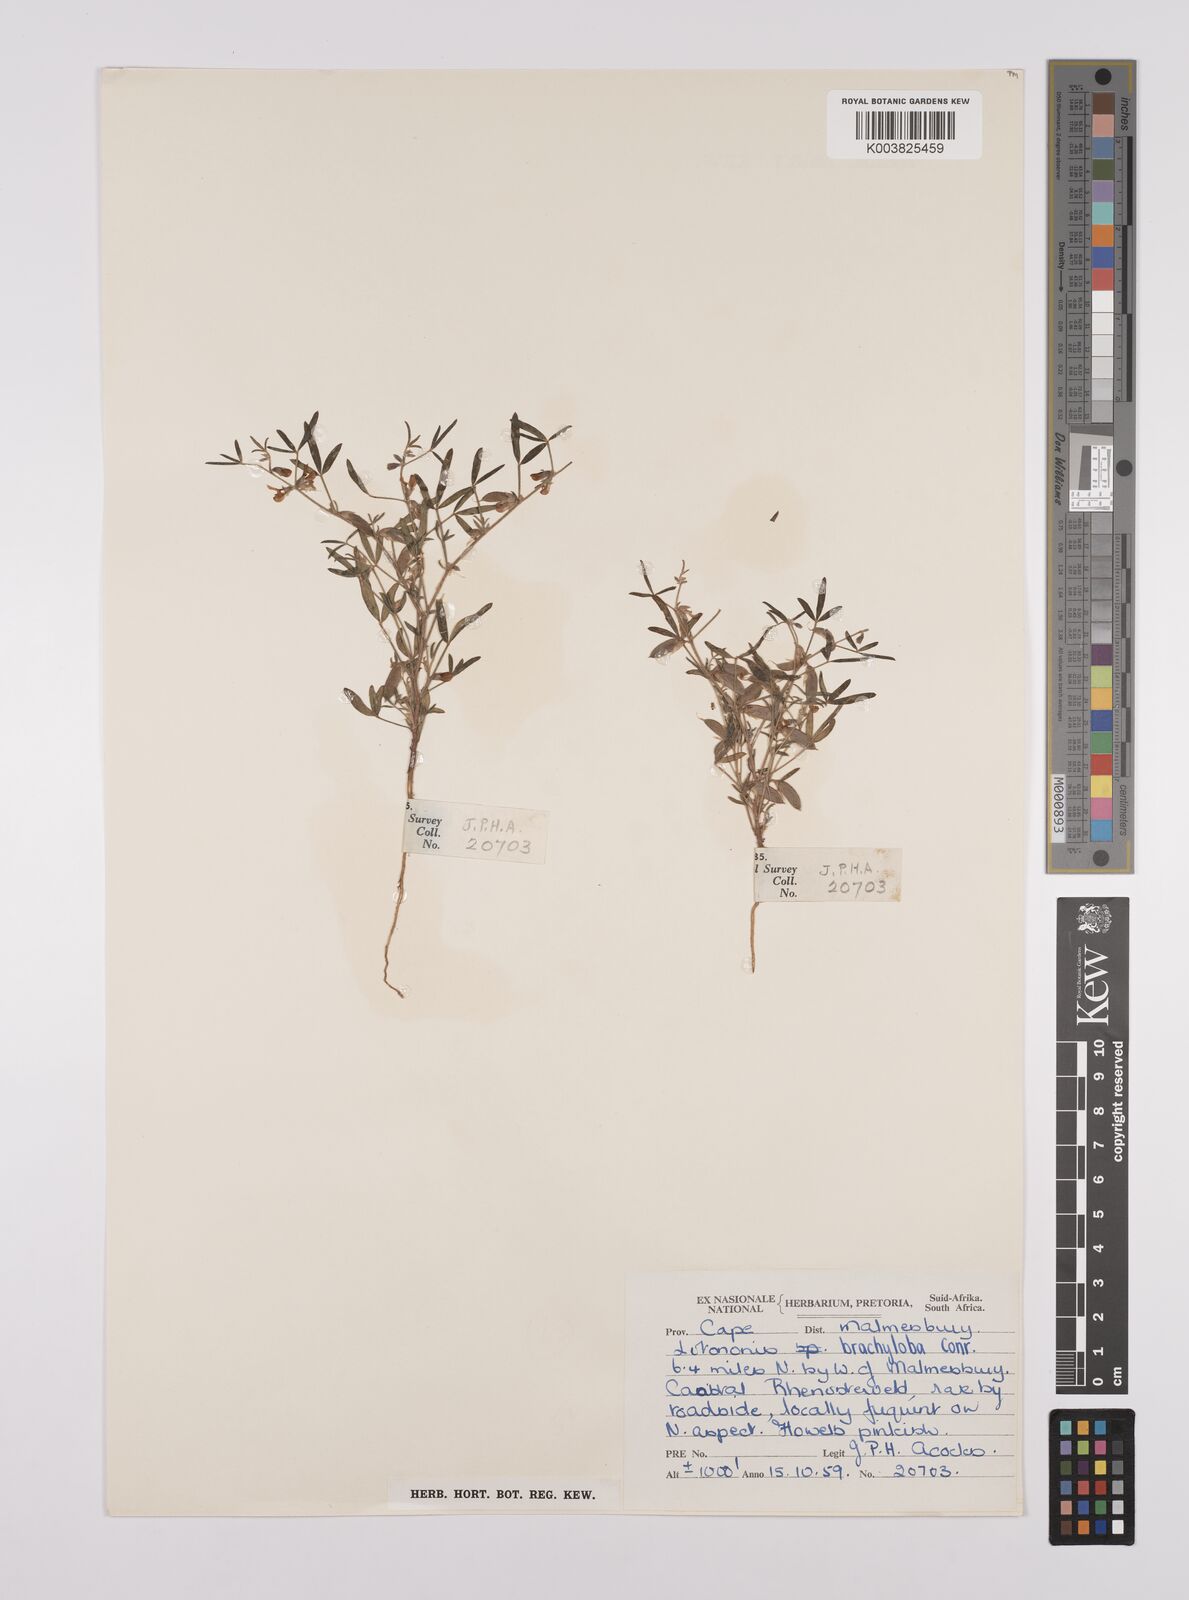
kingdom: Plantae
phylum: Tracheophyta
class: Magnoliopsida
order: Fabales
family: Fabaceae
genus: Lotononis
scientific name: Lotononis parviflora
